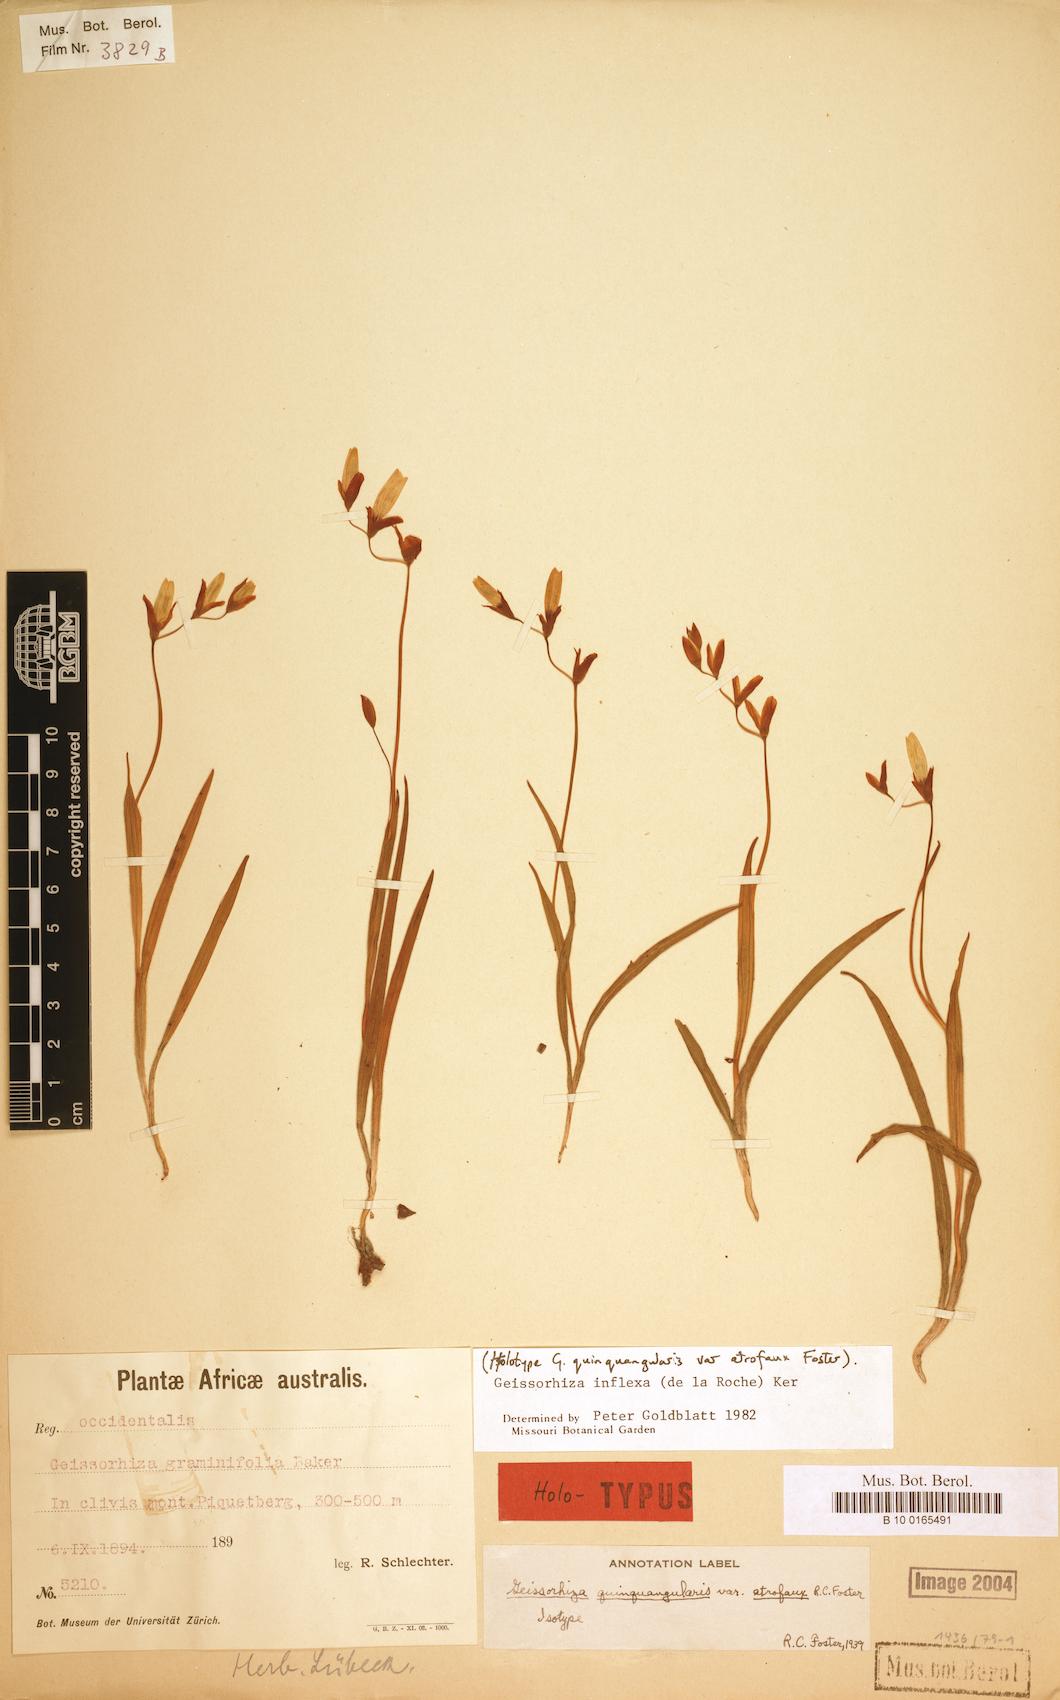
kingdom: Plantae
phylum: Tracheophyta
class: Liliopsida
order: Asparagales
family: Iridaceae
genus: Geissorhiza
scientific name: Geissorhiza inflexa
